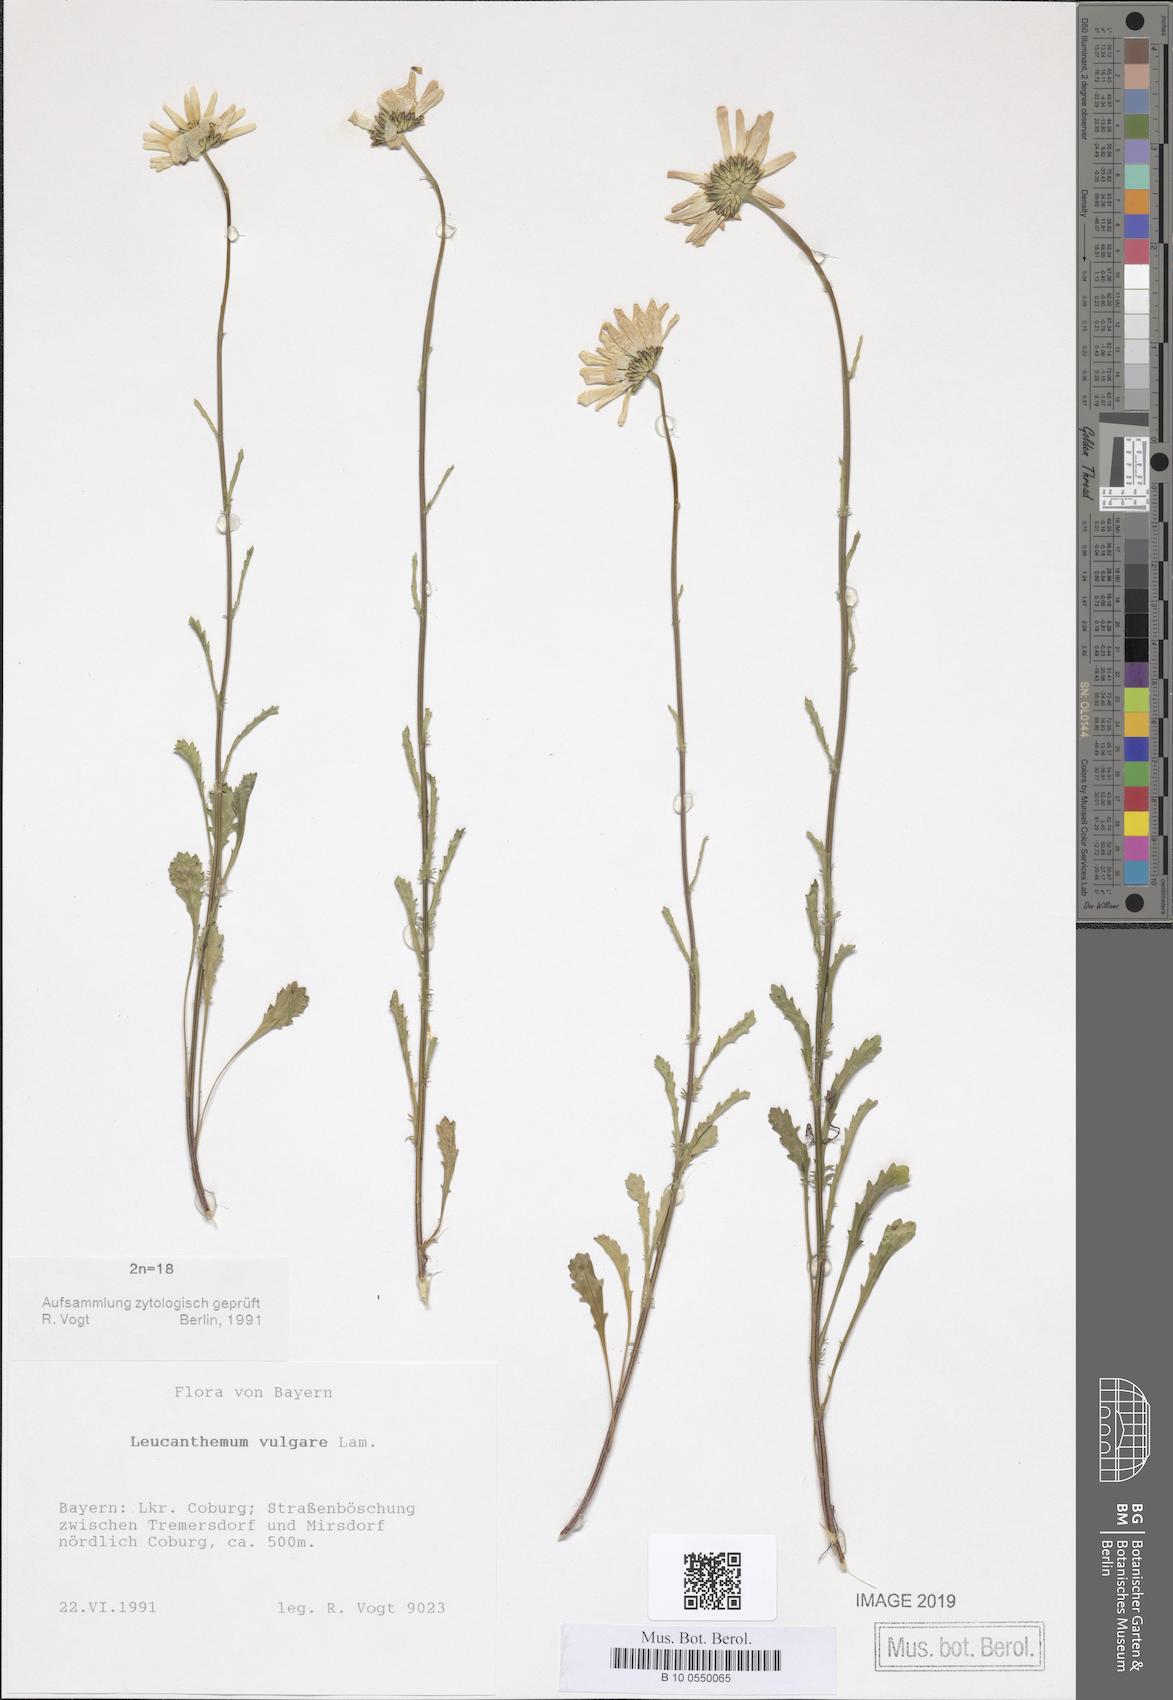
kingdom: Plantae
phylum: Tracheophyta
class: Magnoliopsida
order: Asterales
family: Asteraceae
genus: Leucanthemum
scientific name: Leucanthemum vulgare
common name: Oxeye daisy
